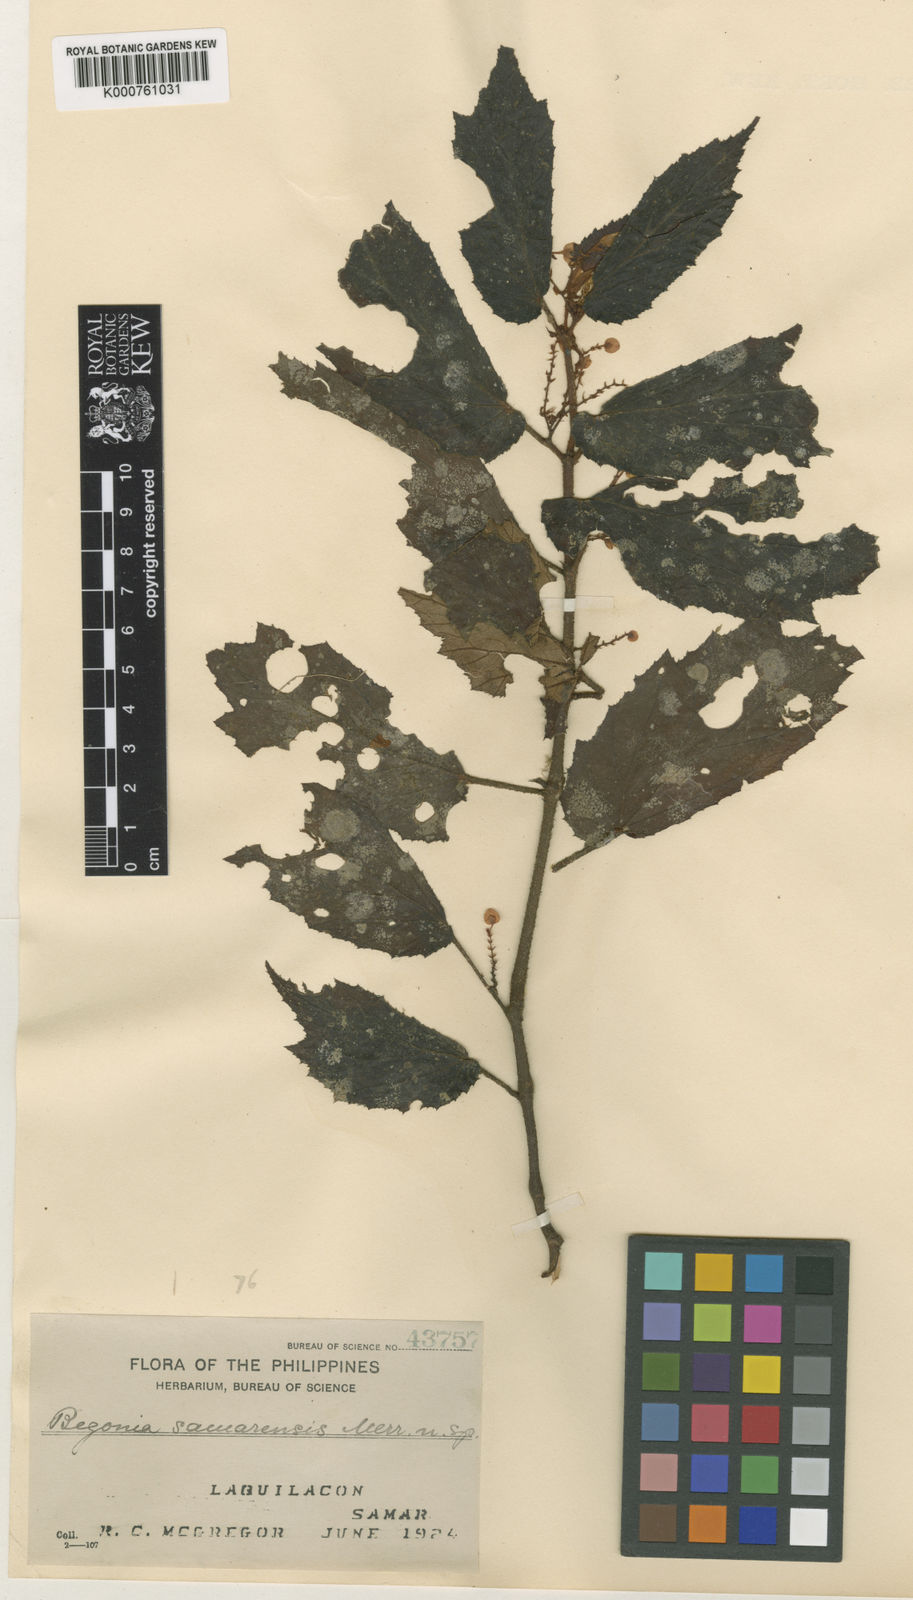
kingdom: Plantae
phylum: Tracheophyta
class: Magnoliopsida
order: Cucurbitales
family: Begoniaceae
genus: Begonia
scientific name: Begonia samarensis
